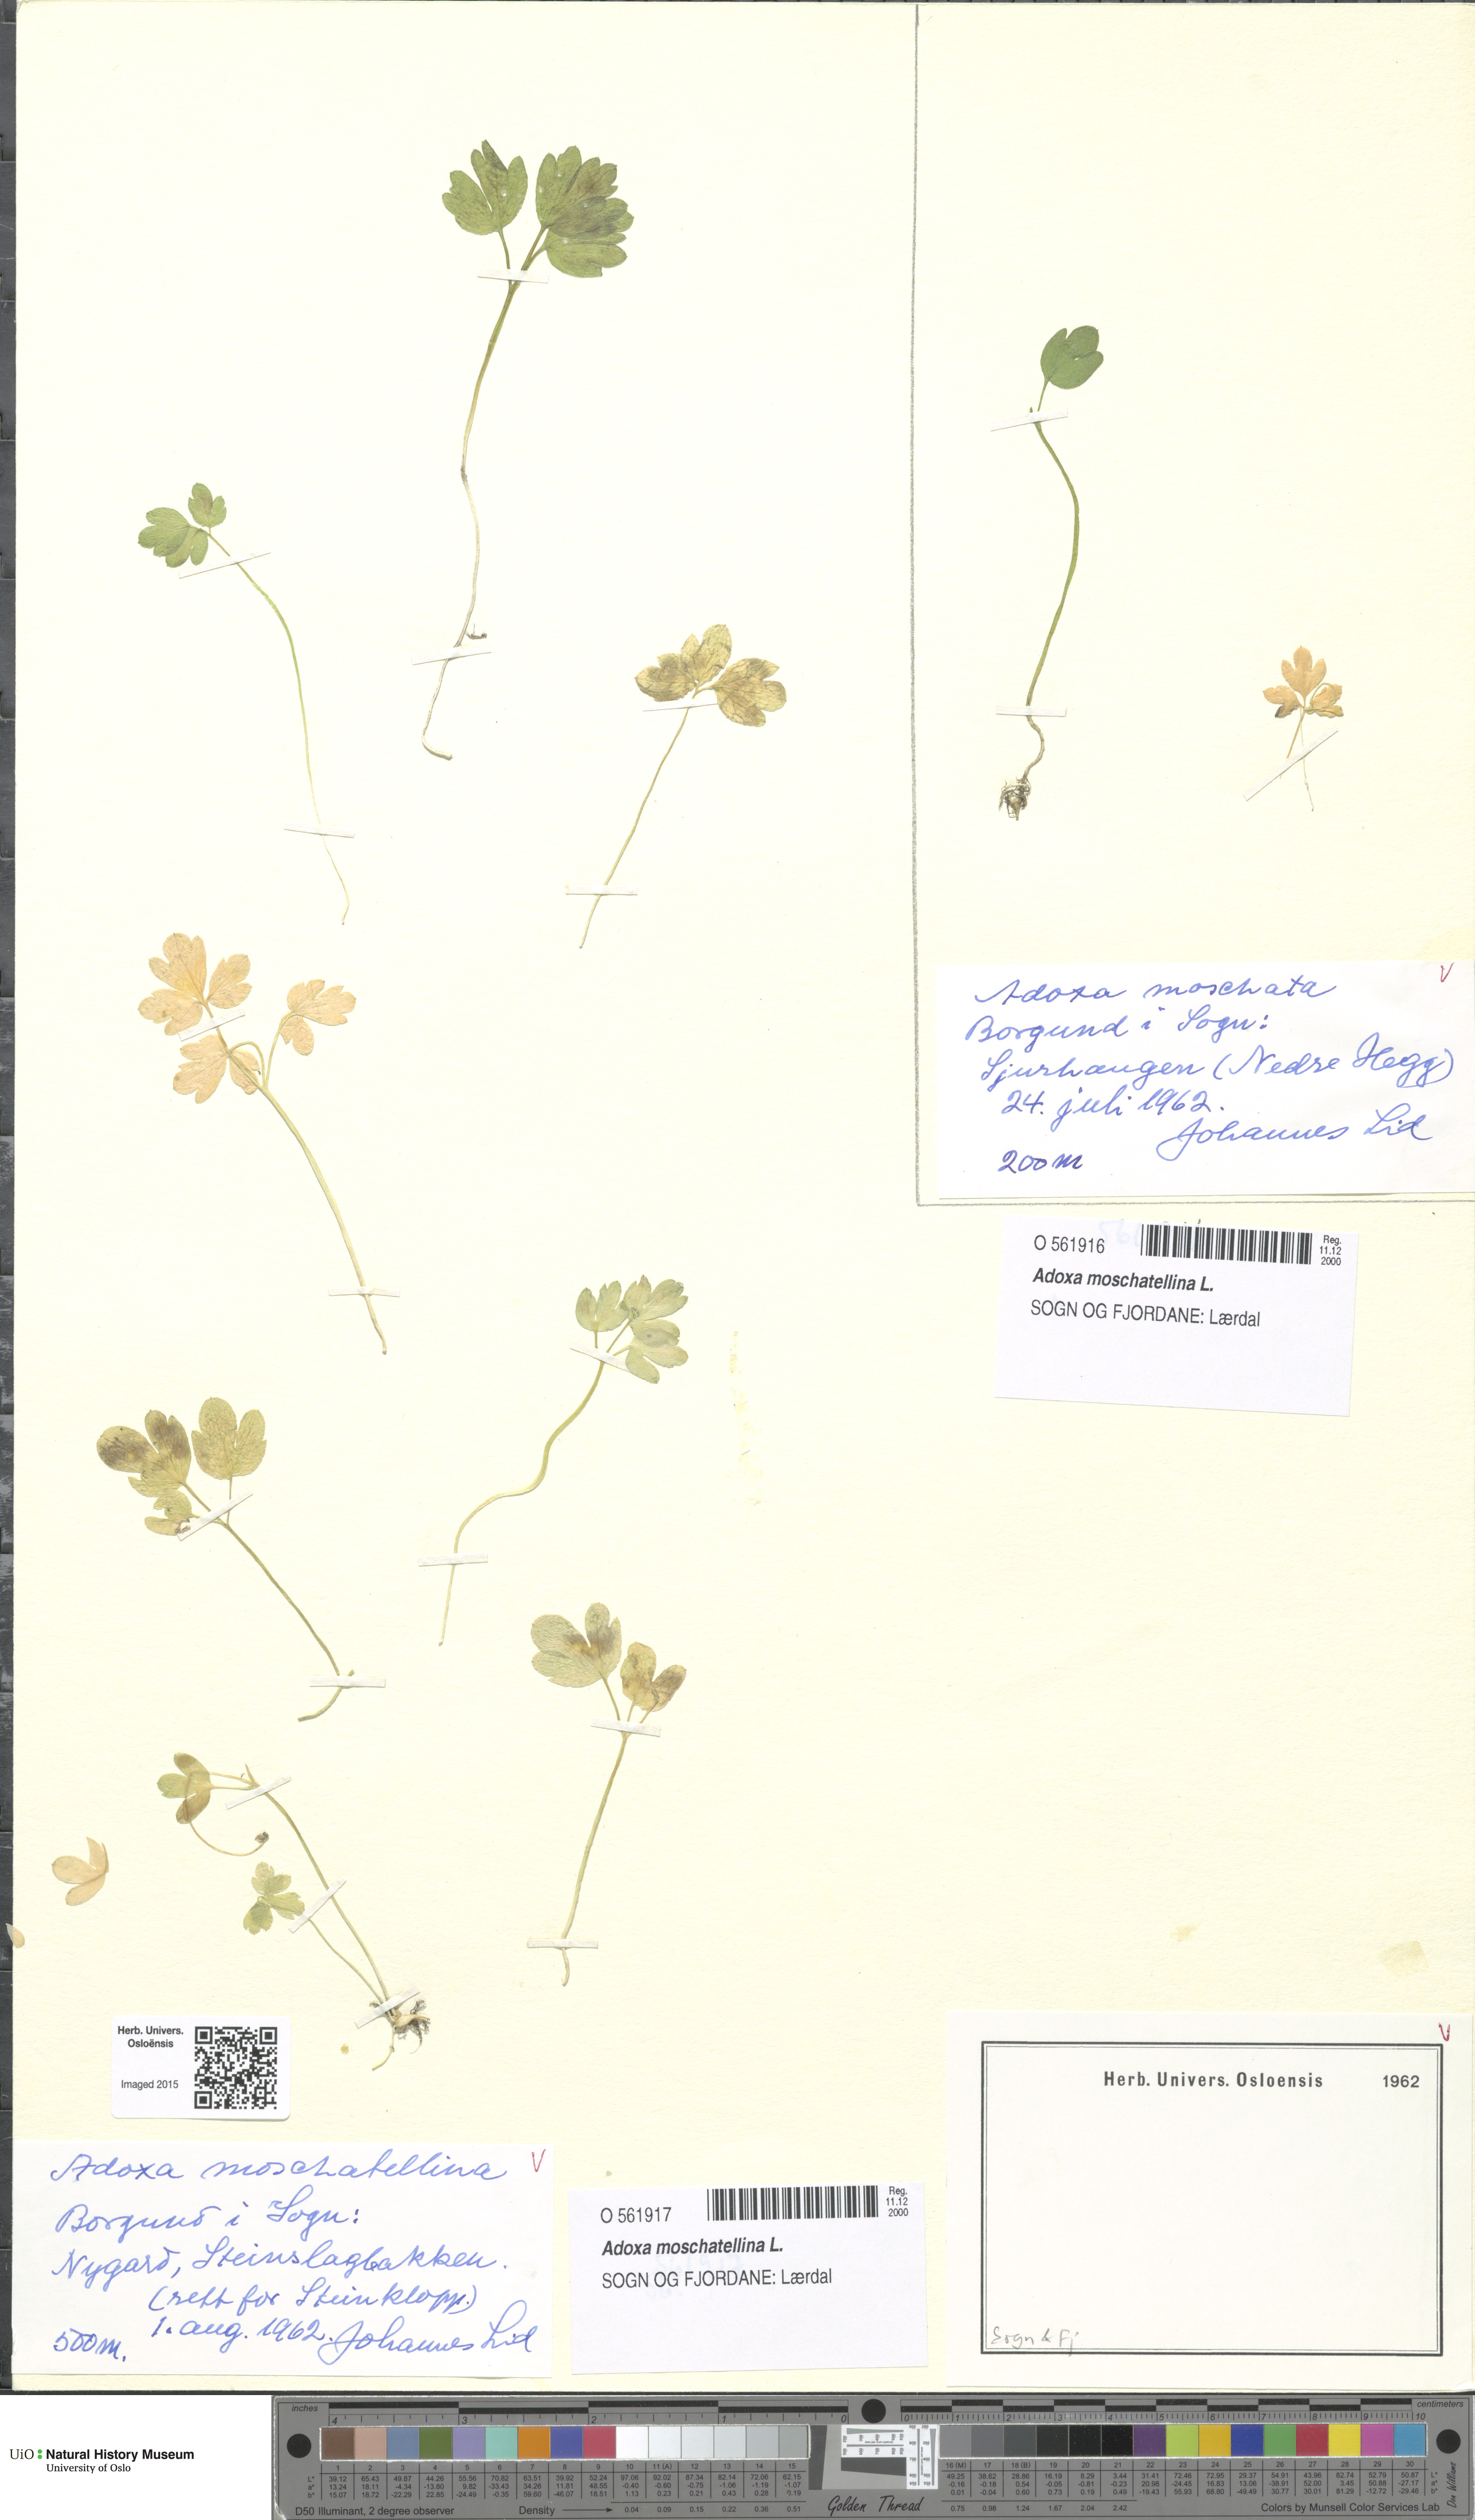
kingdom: Plantae
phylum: Tracheophyta
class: Magnoliopsida
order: Dipsacales
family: Viburnaceae
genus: Adoxa
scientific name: Adoxa moschatellina
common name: Moschatel
